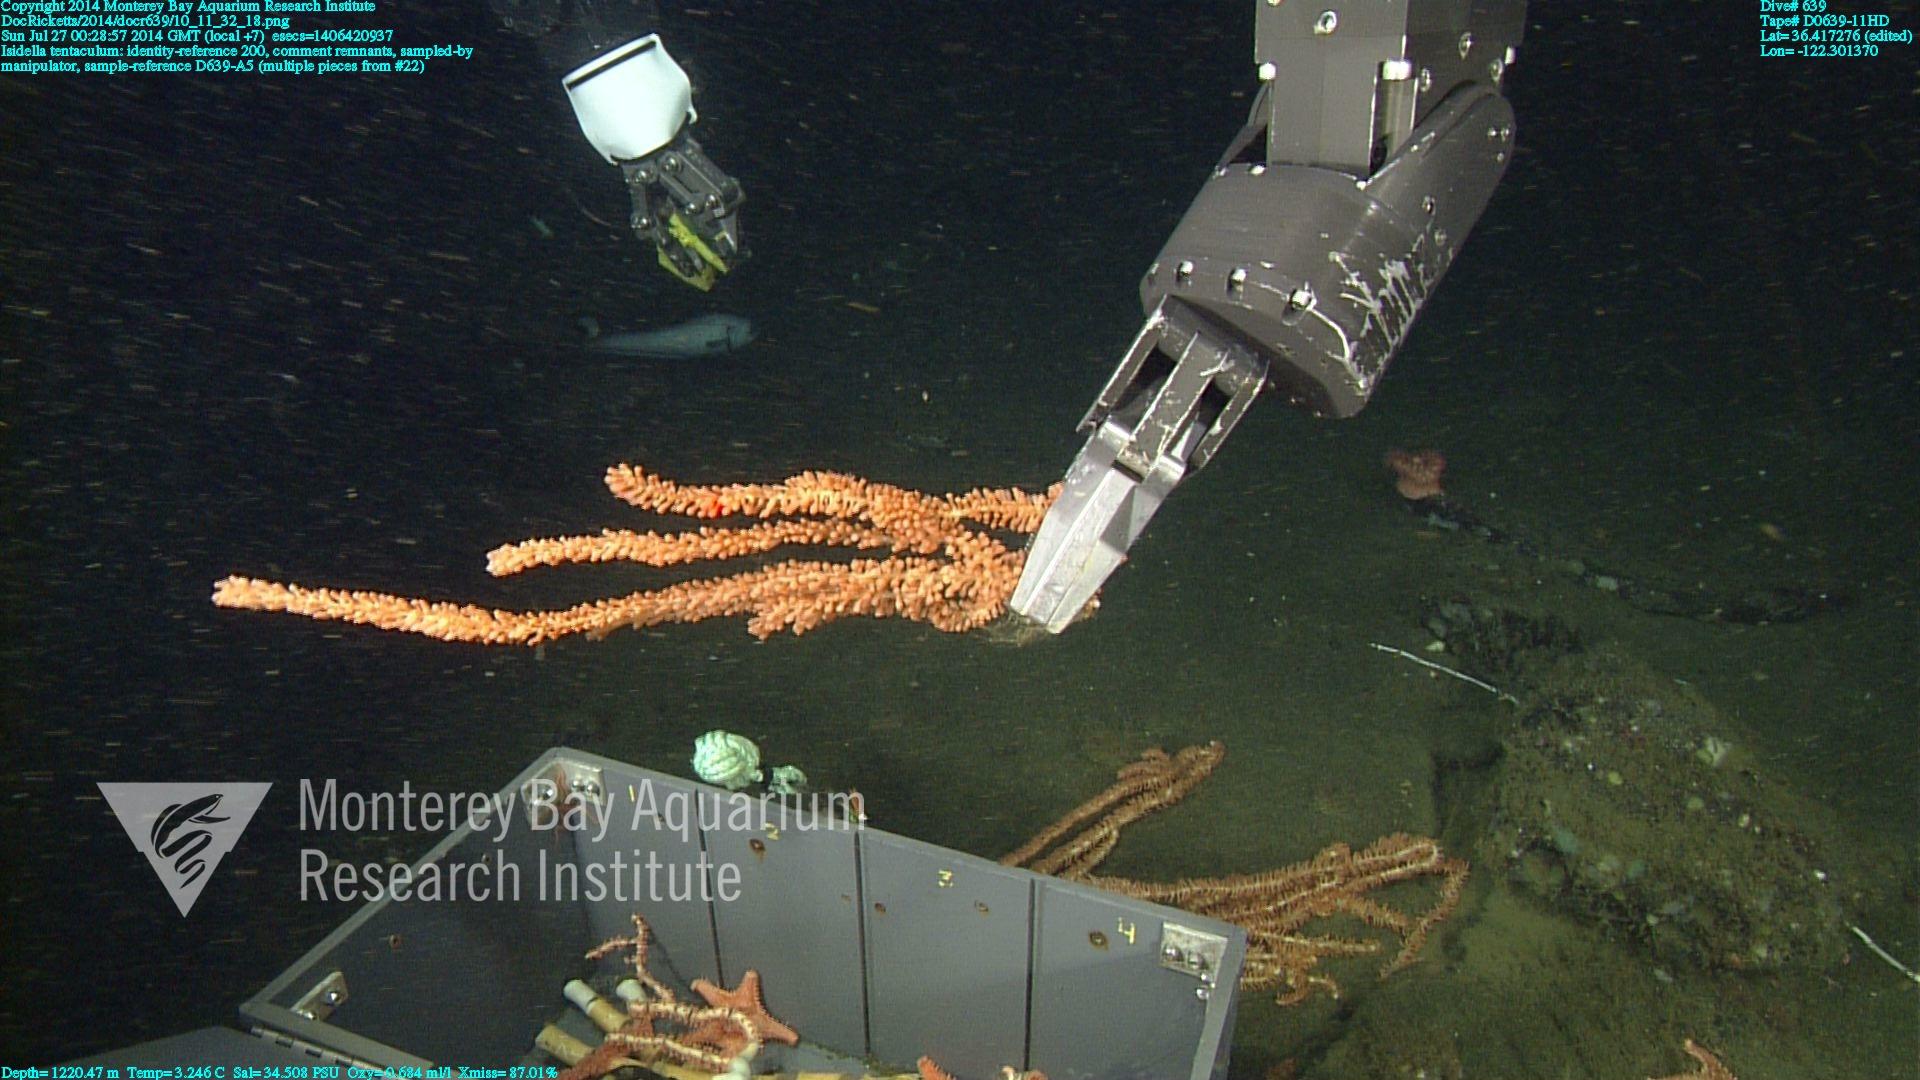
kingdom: Animalia
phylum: Cnidaria
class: Anthozoa
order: Scleralcyonacea
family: Keratoisididae
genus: Isidella
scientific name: Isidella tentaculum
